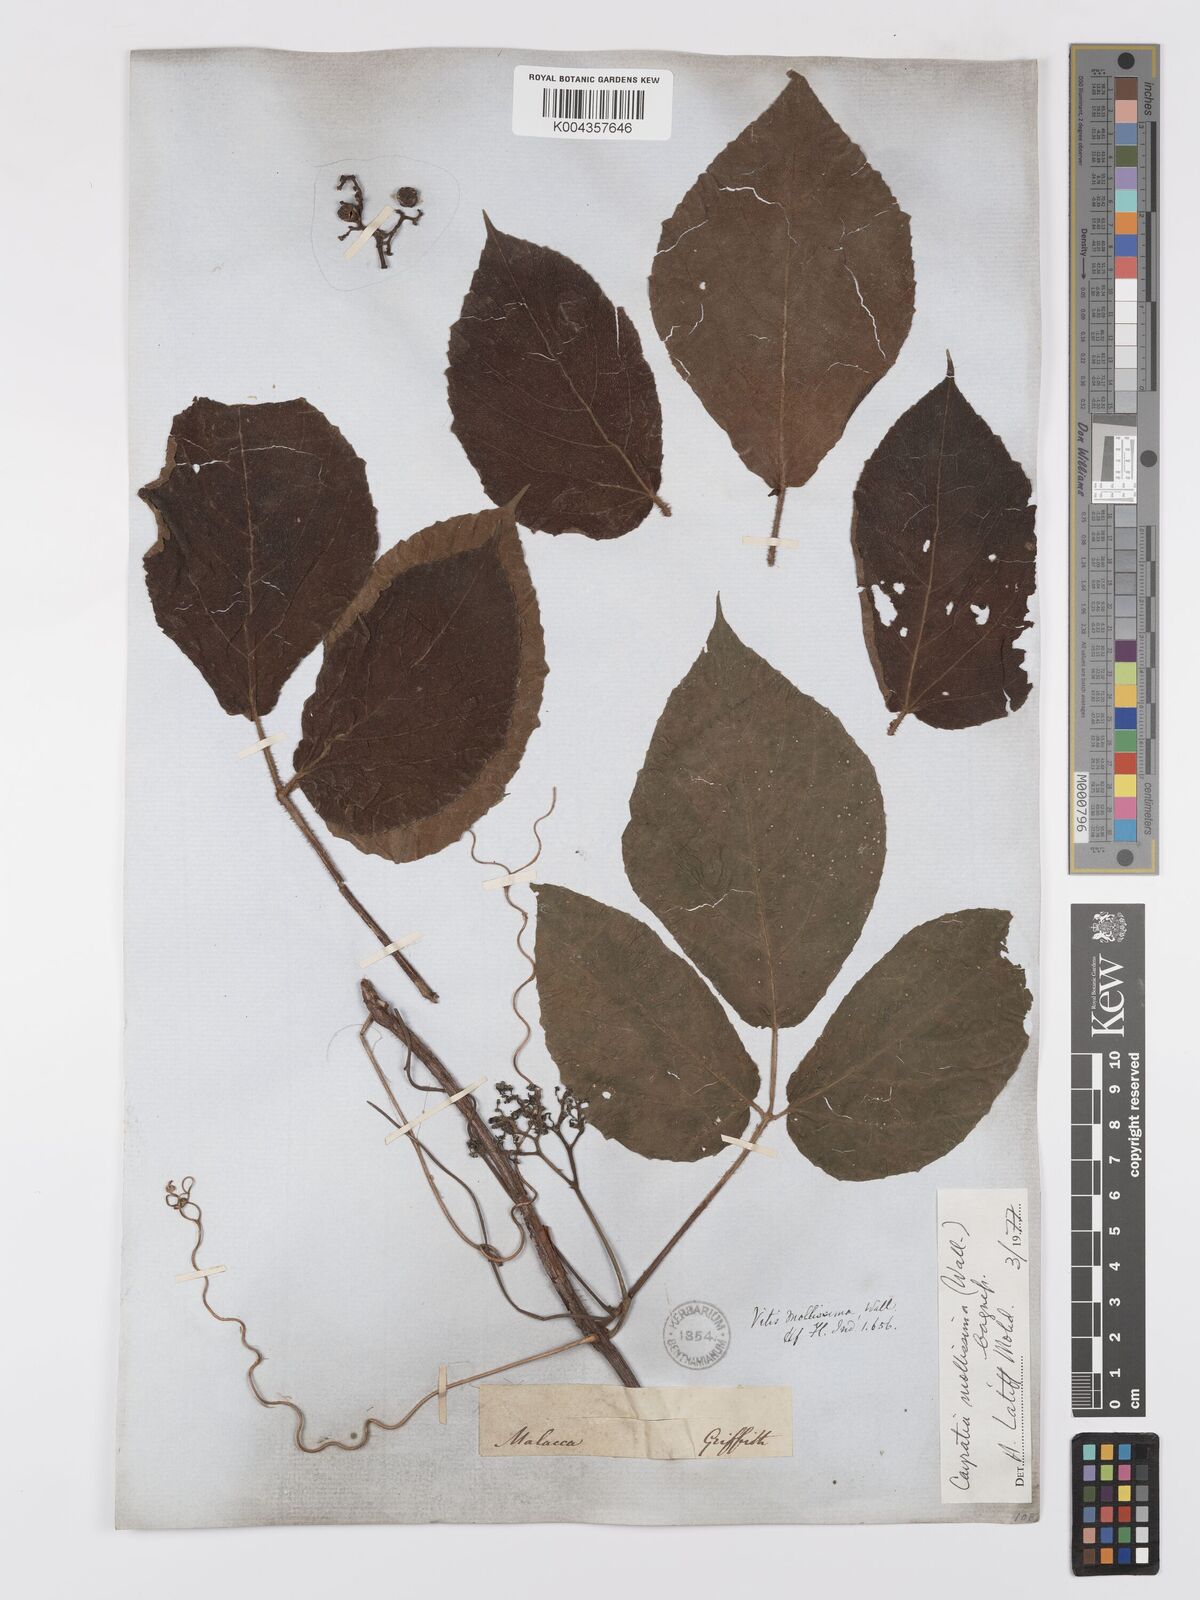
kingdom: Plantae
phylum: Tracheophyta
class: Magnoliopsida
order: Vitales
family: Vitaceae
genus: Cayratia
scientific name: Cayratia mollissima
